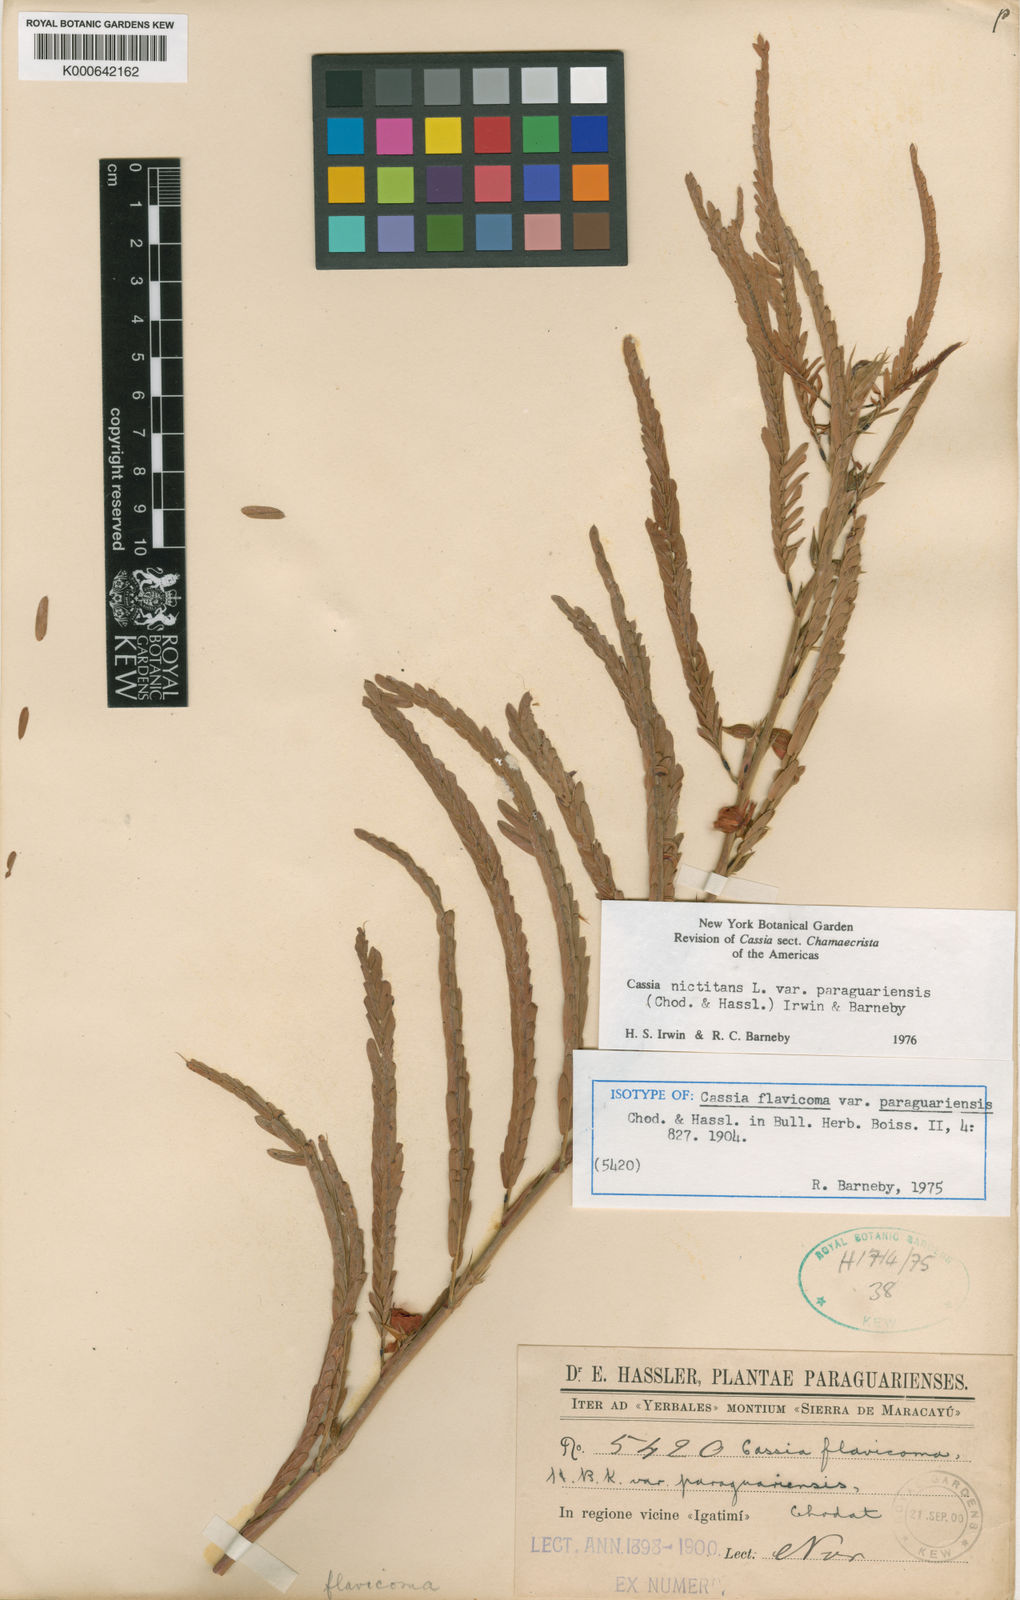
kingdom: Plantae
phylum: Tracheophyta
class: Magnoliopsida
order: Fabales
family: Fabaceae
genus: Chamaecrista
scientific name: Chamaecrista nictitans
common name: Sensitive cassia
